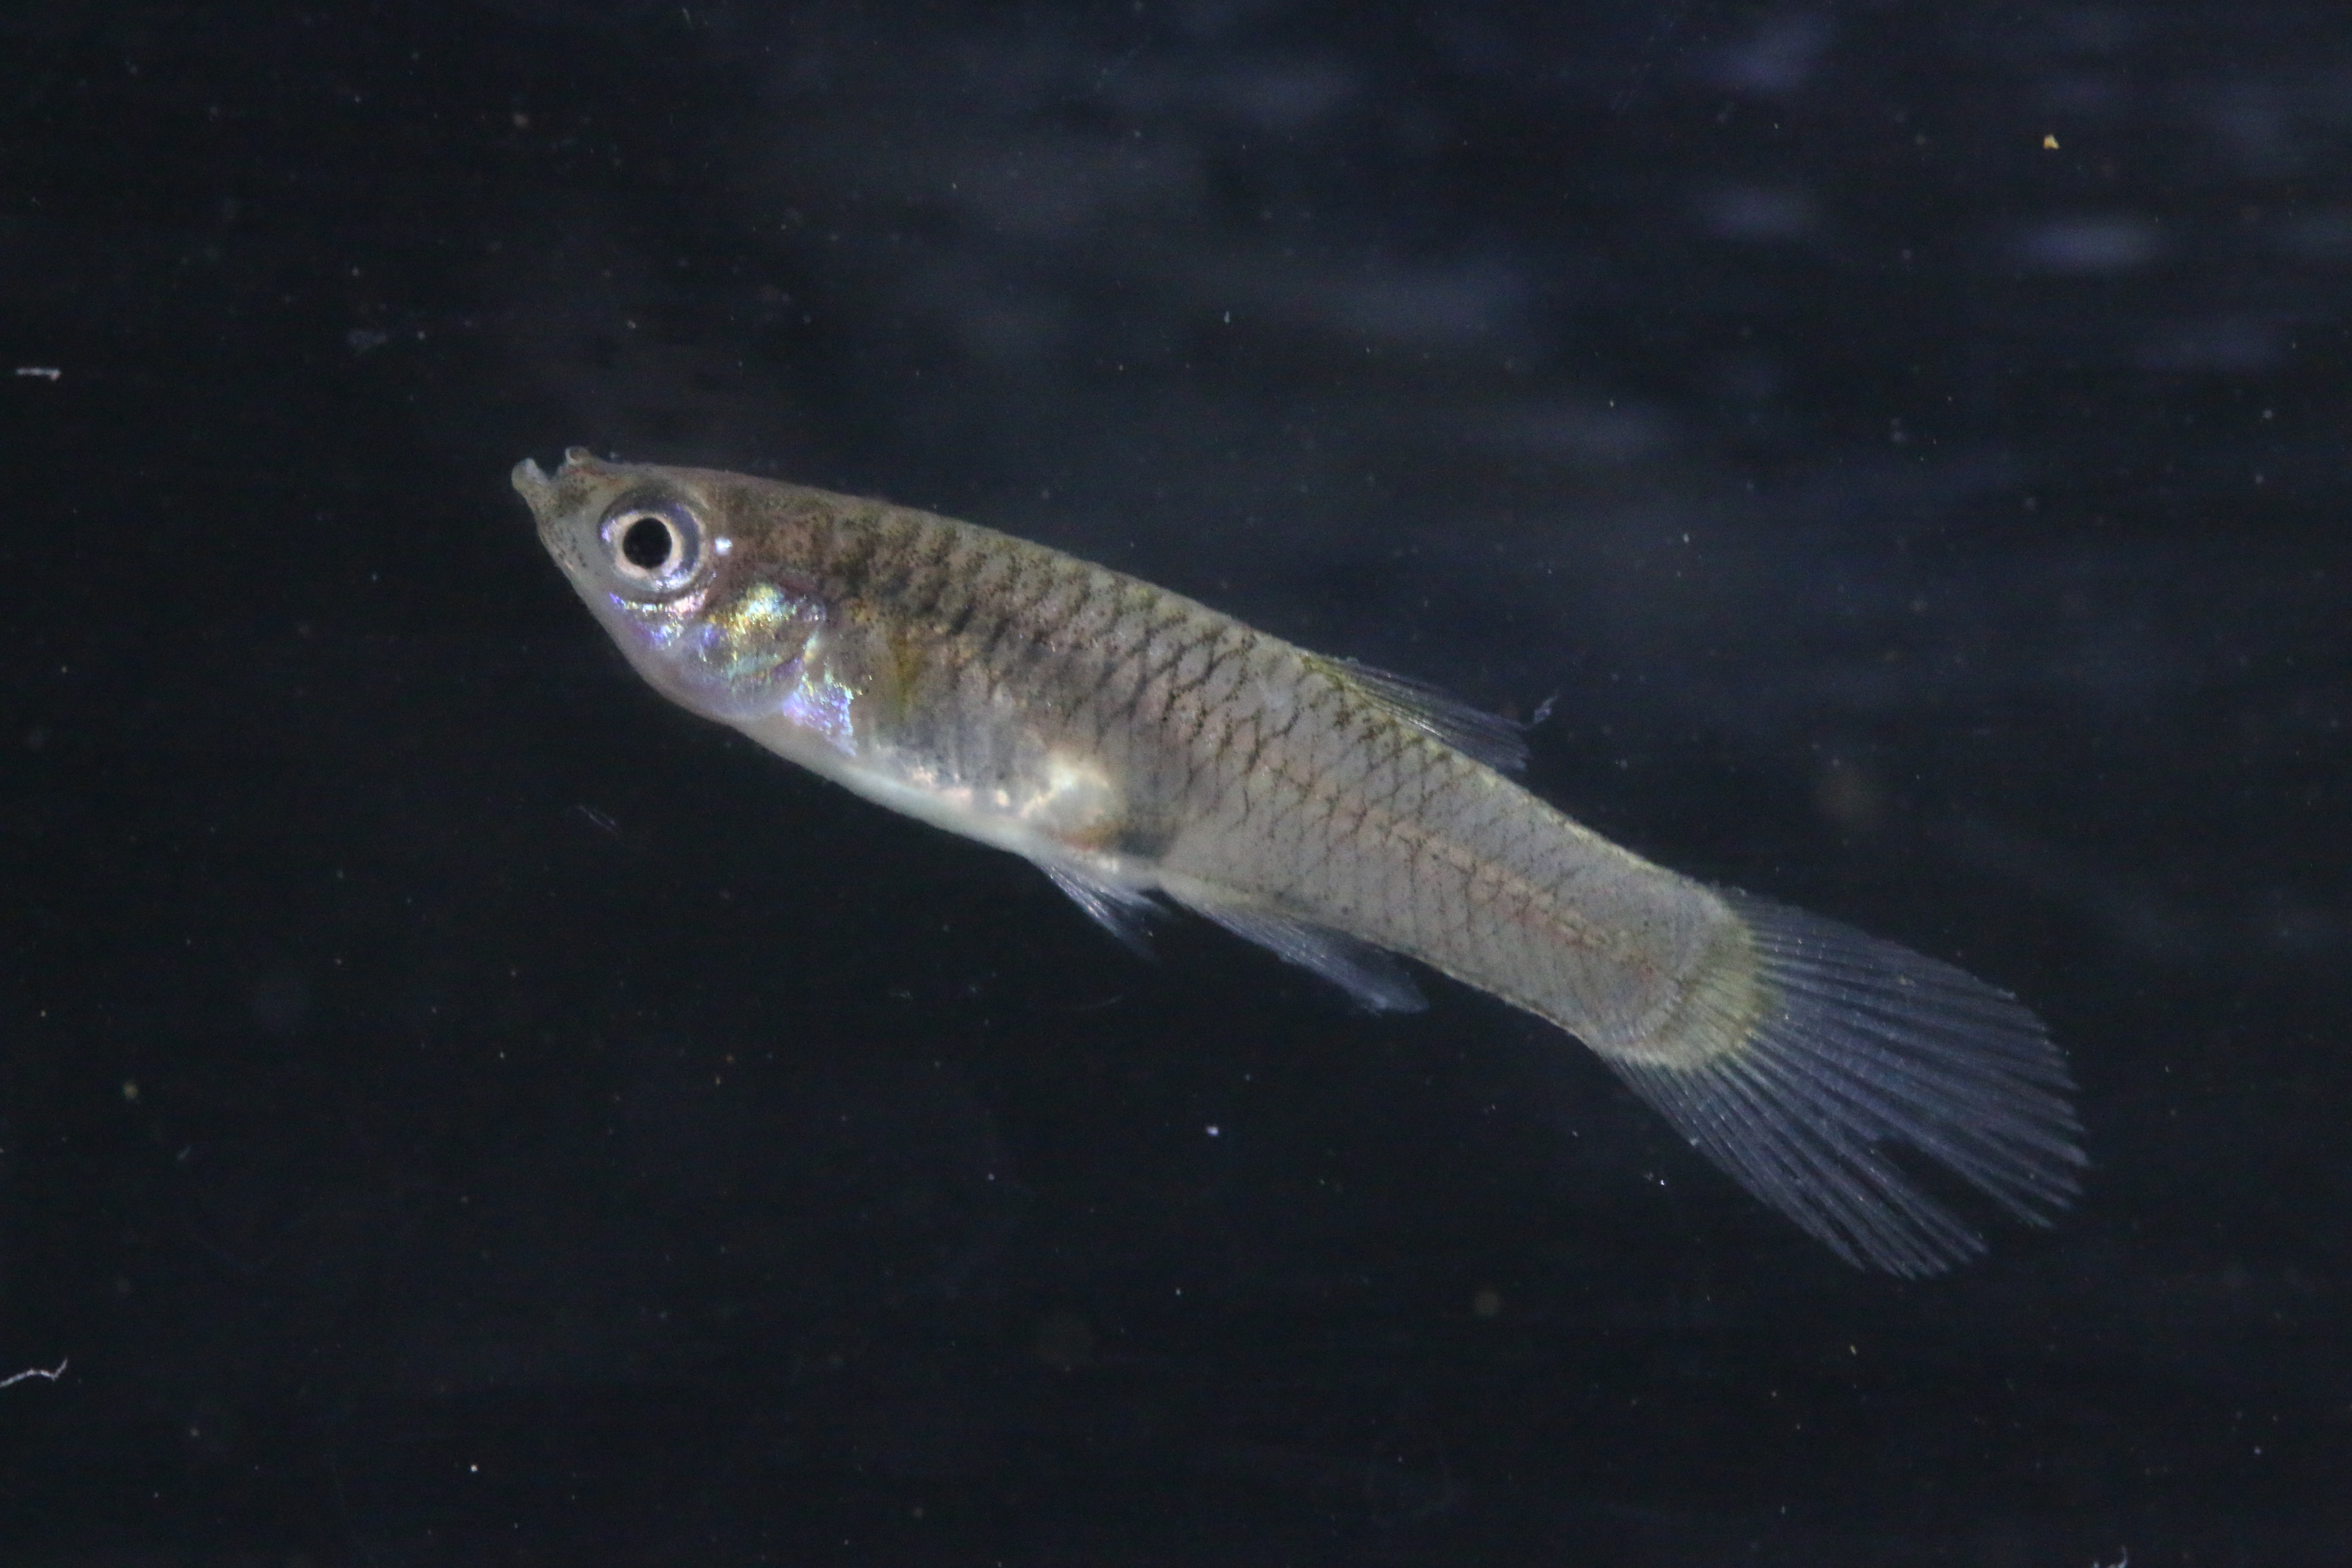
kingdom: Animalia
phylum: Chordata
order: Cyprinodontiformes
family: Poeciliidae
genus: Poecilia
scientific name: Poecilia reticulata
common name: Guppy
